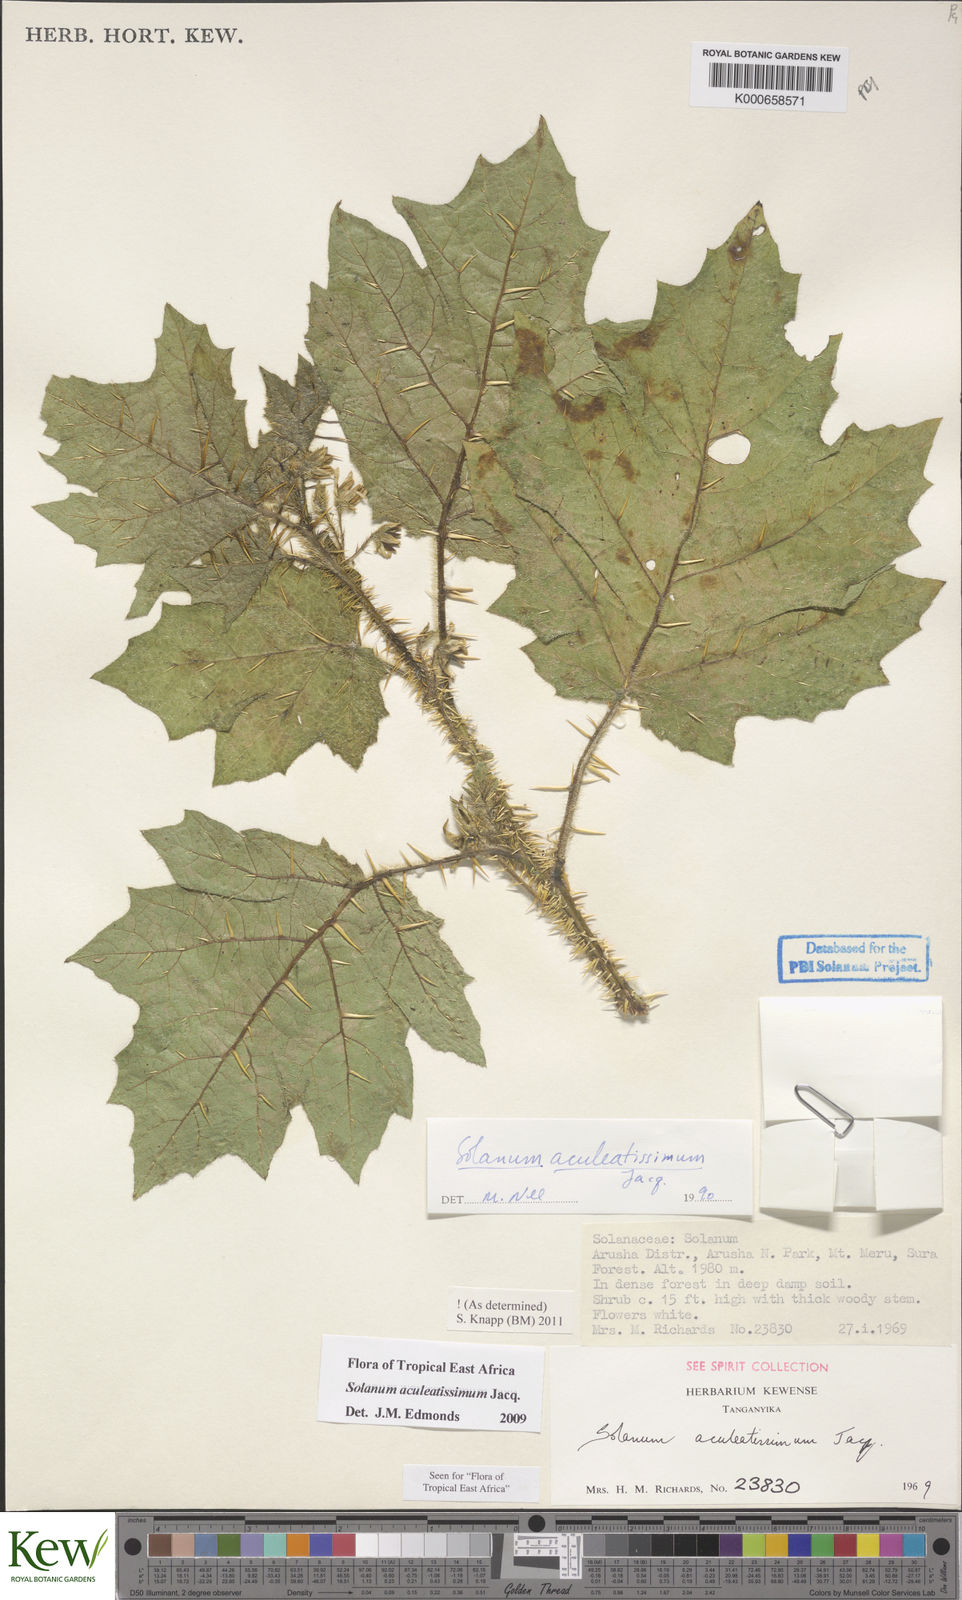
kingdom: Plantae
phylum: Tracheophyta
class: Magnoliopsida
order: Solanales
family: Solanaceae
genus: Solanum
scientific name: Solanum aculeatissimum
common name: Dutch eggplant
